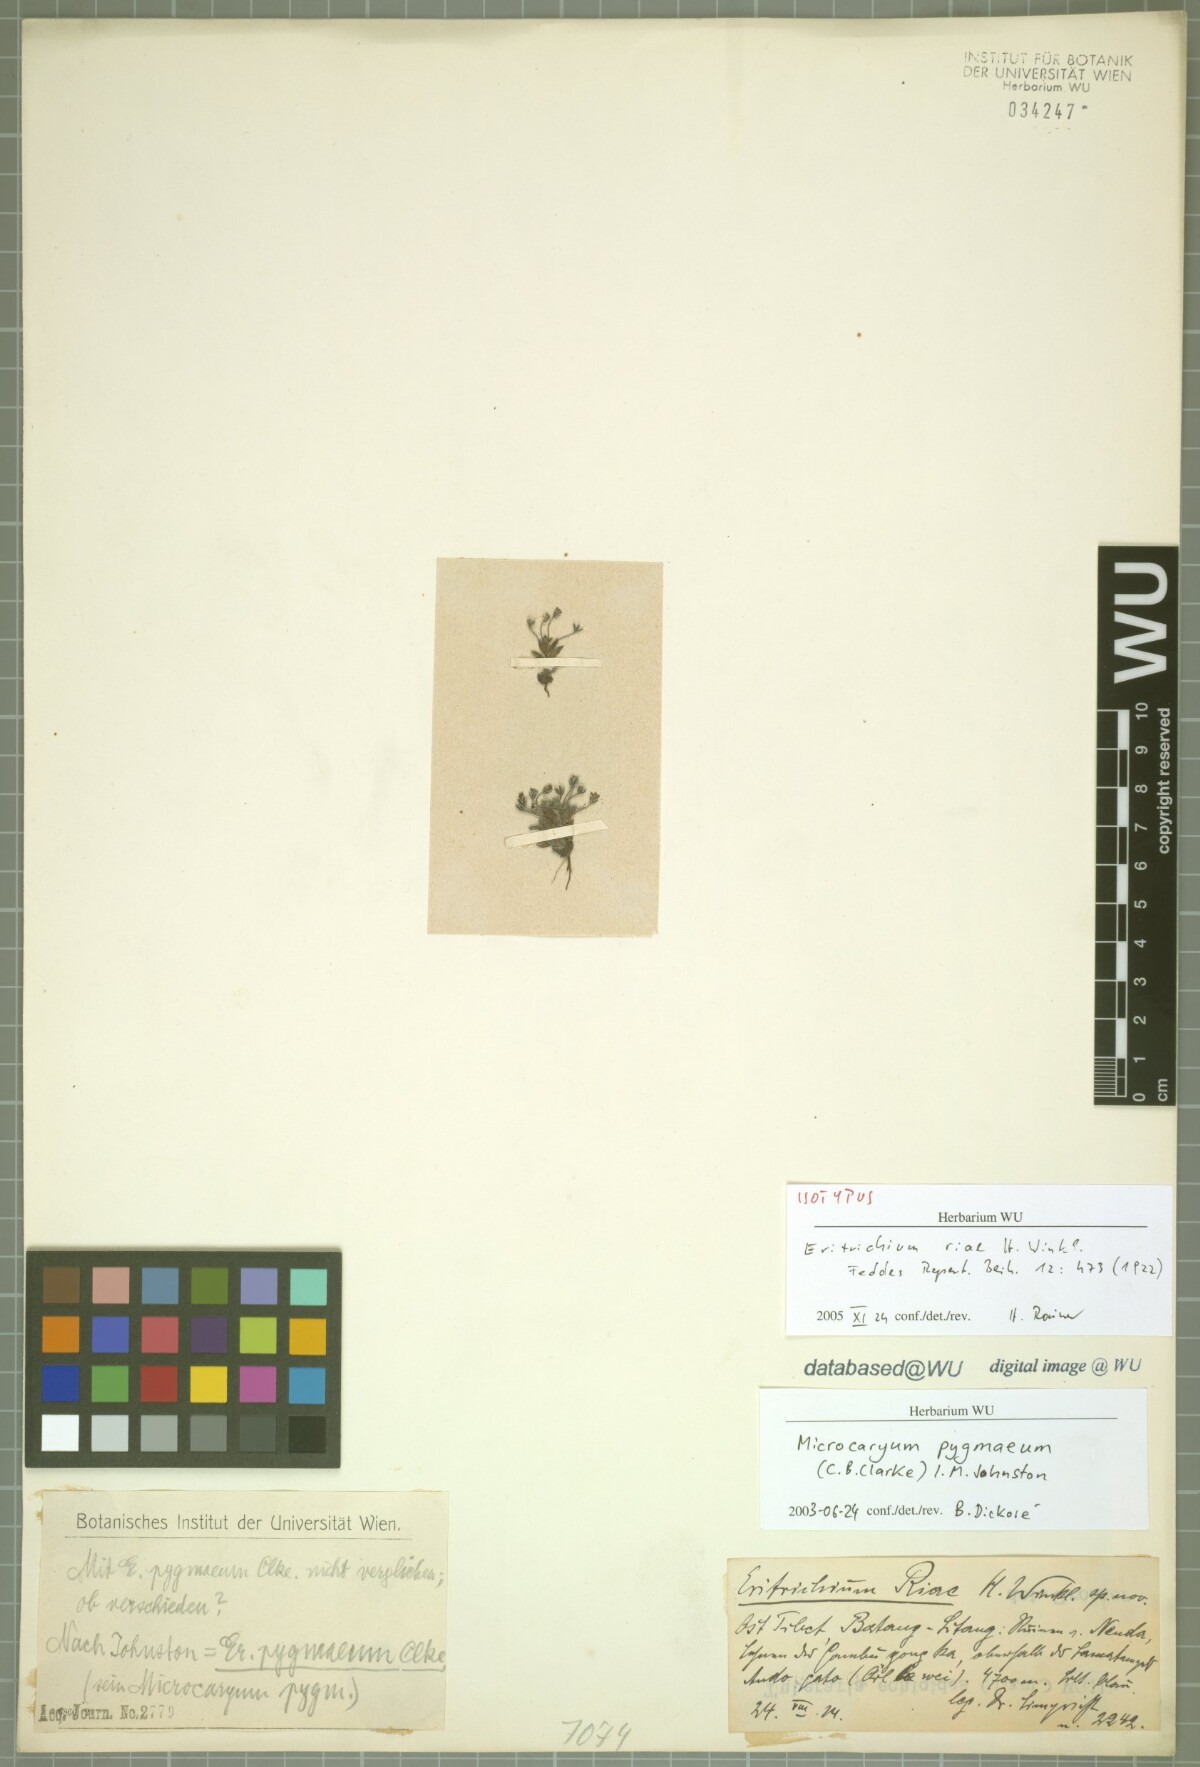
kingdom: Plantae
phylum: Tracheophyta
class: Magnoliopsida
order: Boraginales
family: Boraginaceae
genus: Microcaryum
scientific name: Microcaryum pygmaeum
